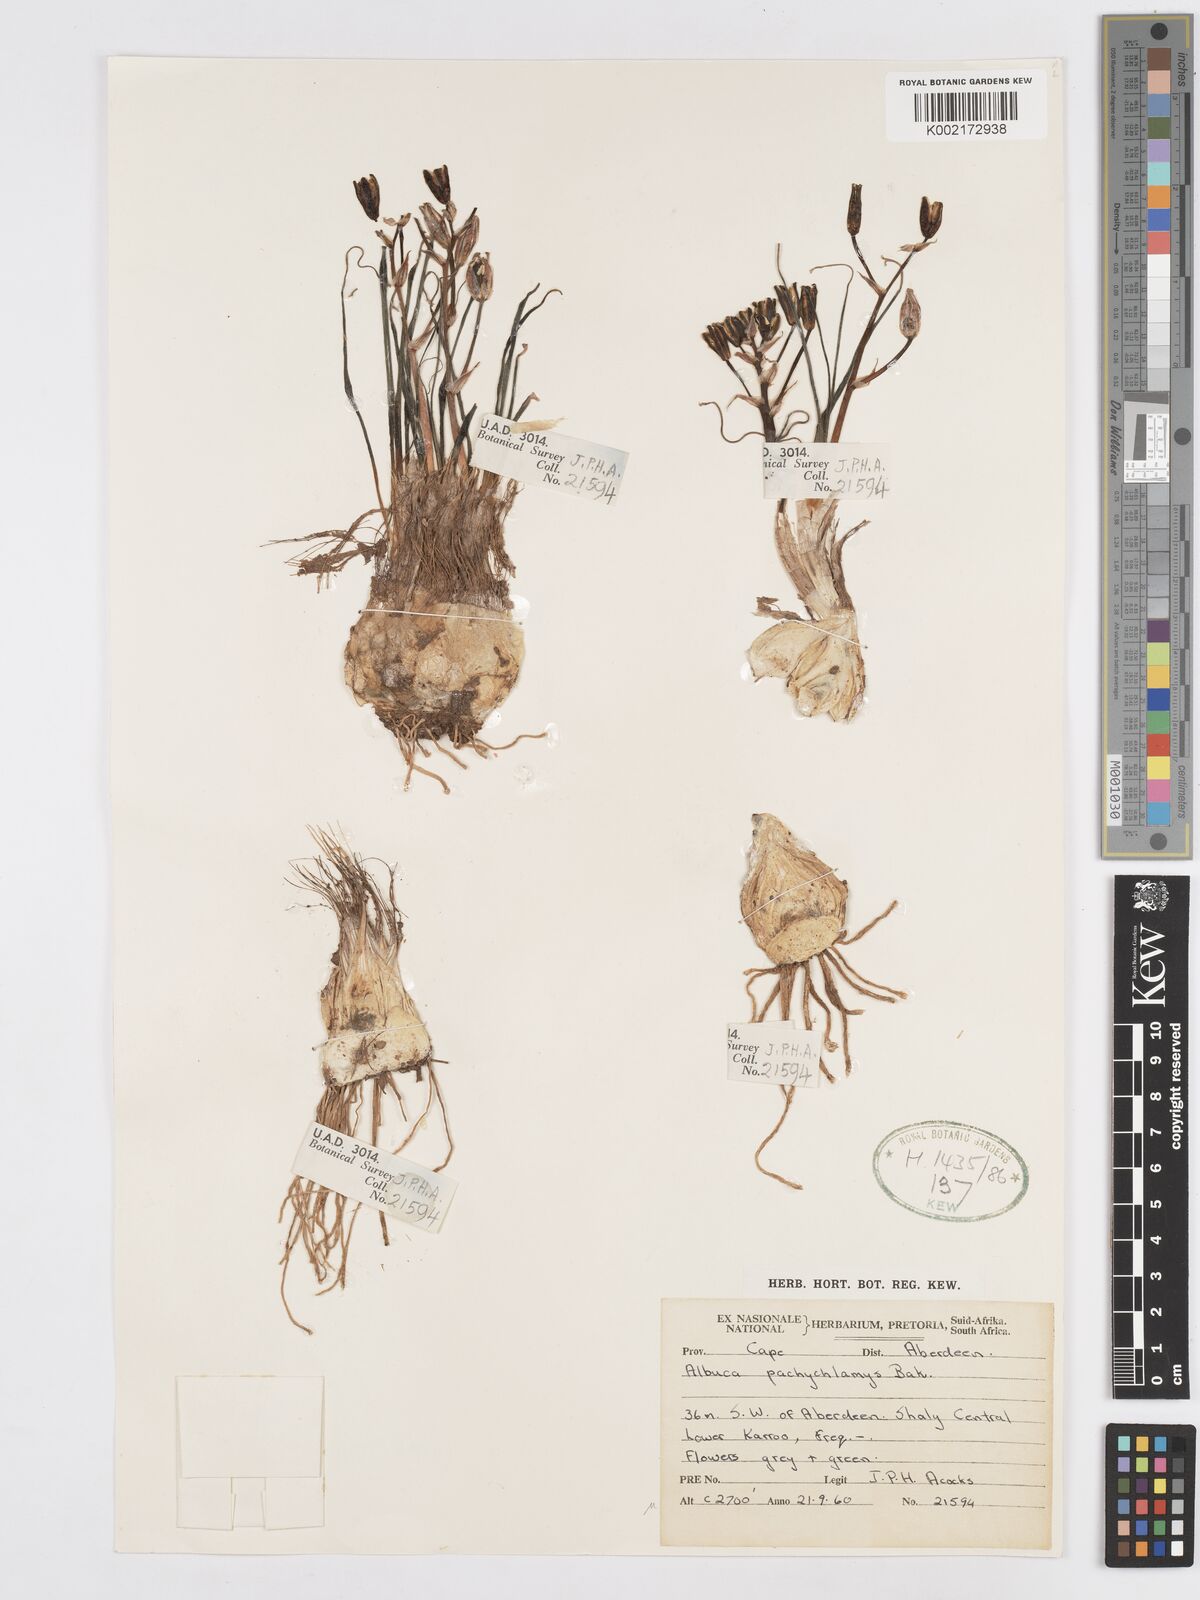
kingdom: Plantae
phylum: Tracheophyta
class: Liliopsida
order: Asparagales
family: Asparagaceae
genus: Albuca
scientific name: Albuca setosa
